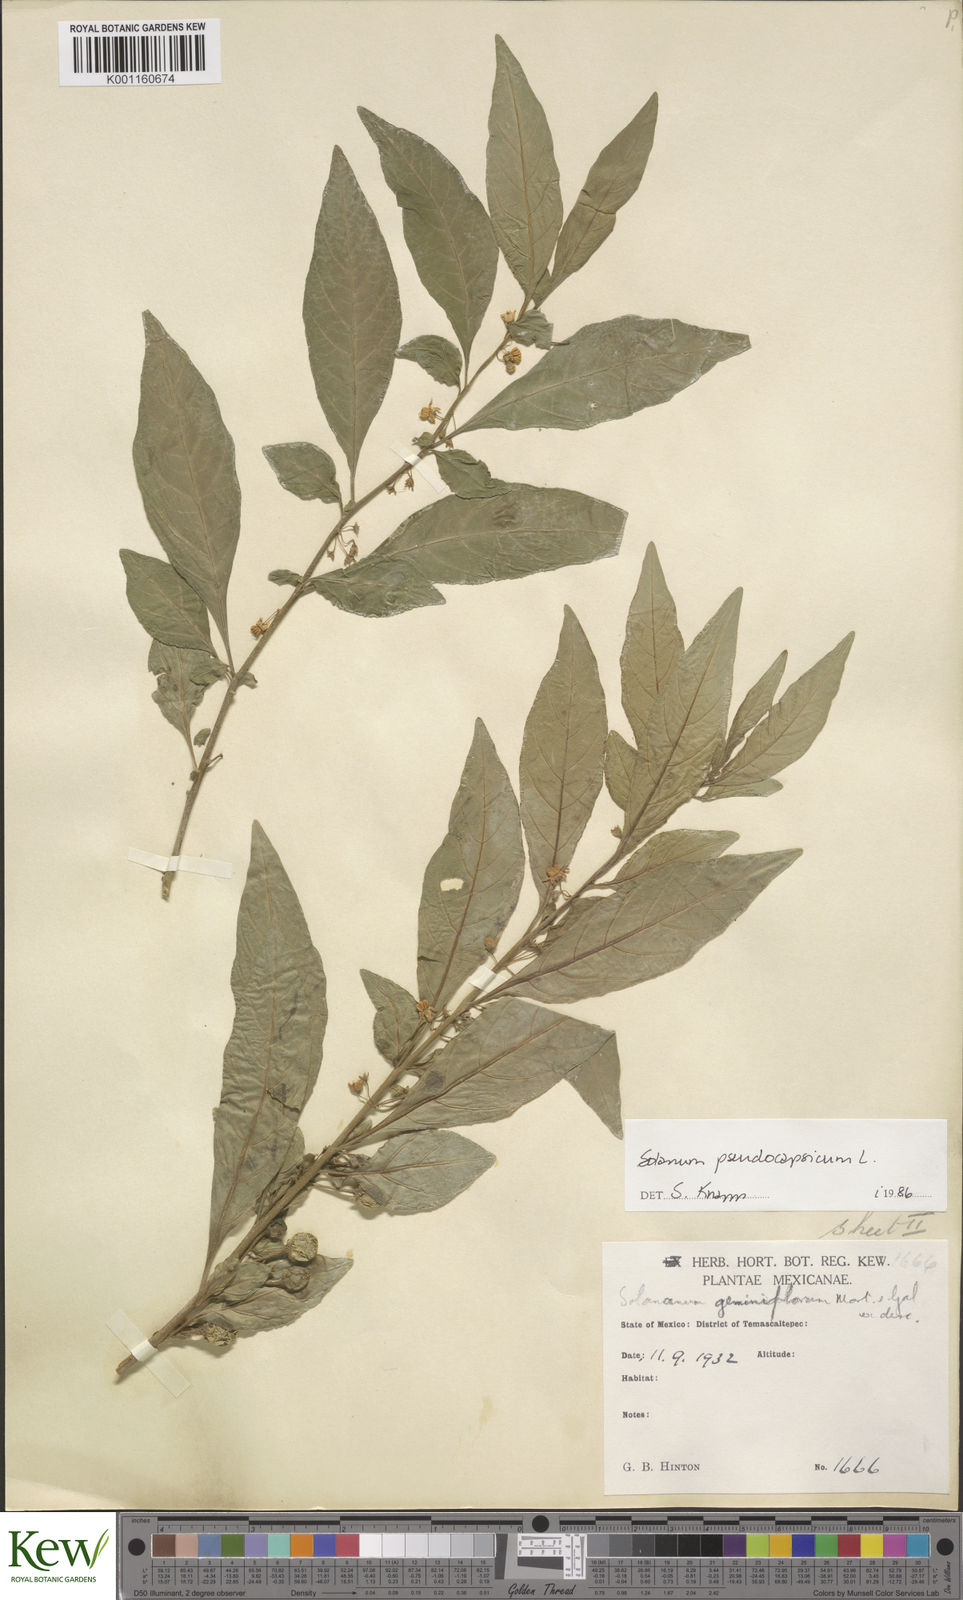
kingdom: Plantae
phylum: Tracheophyta
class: Magnoliopsida
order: Solanales
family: Solanaceae
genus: Solanum
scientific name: Solanum pseudocapsicum
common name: Jerusalem cherry
